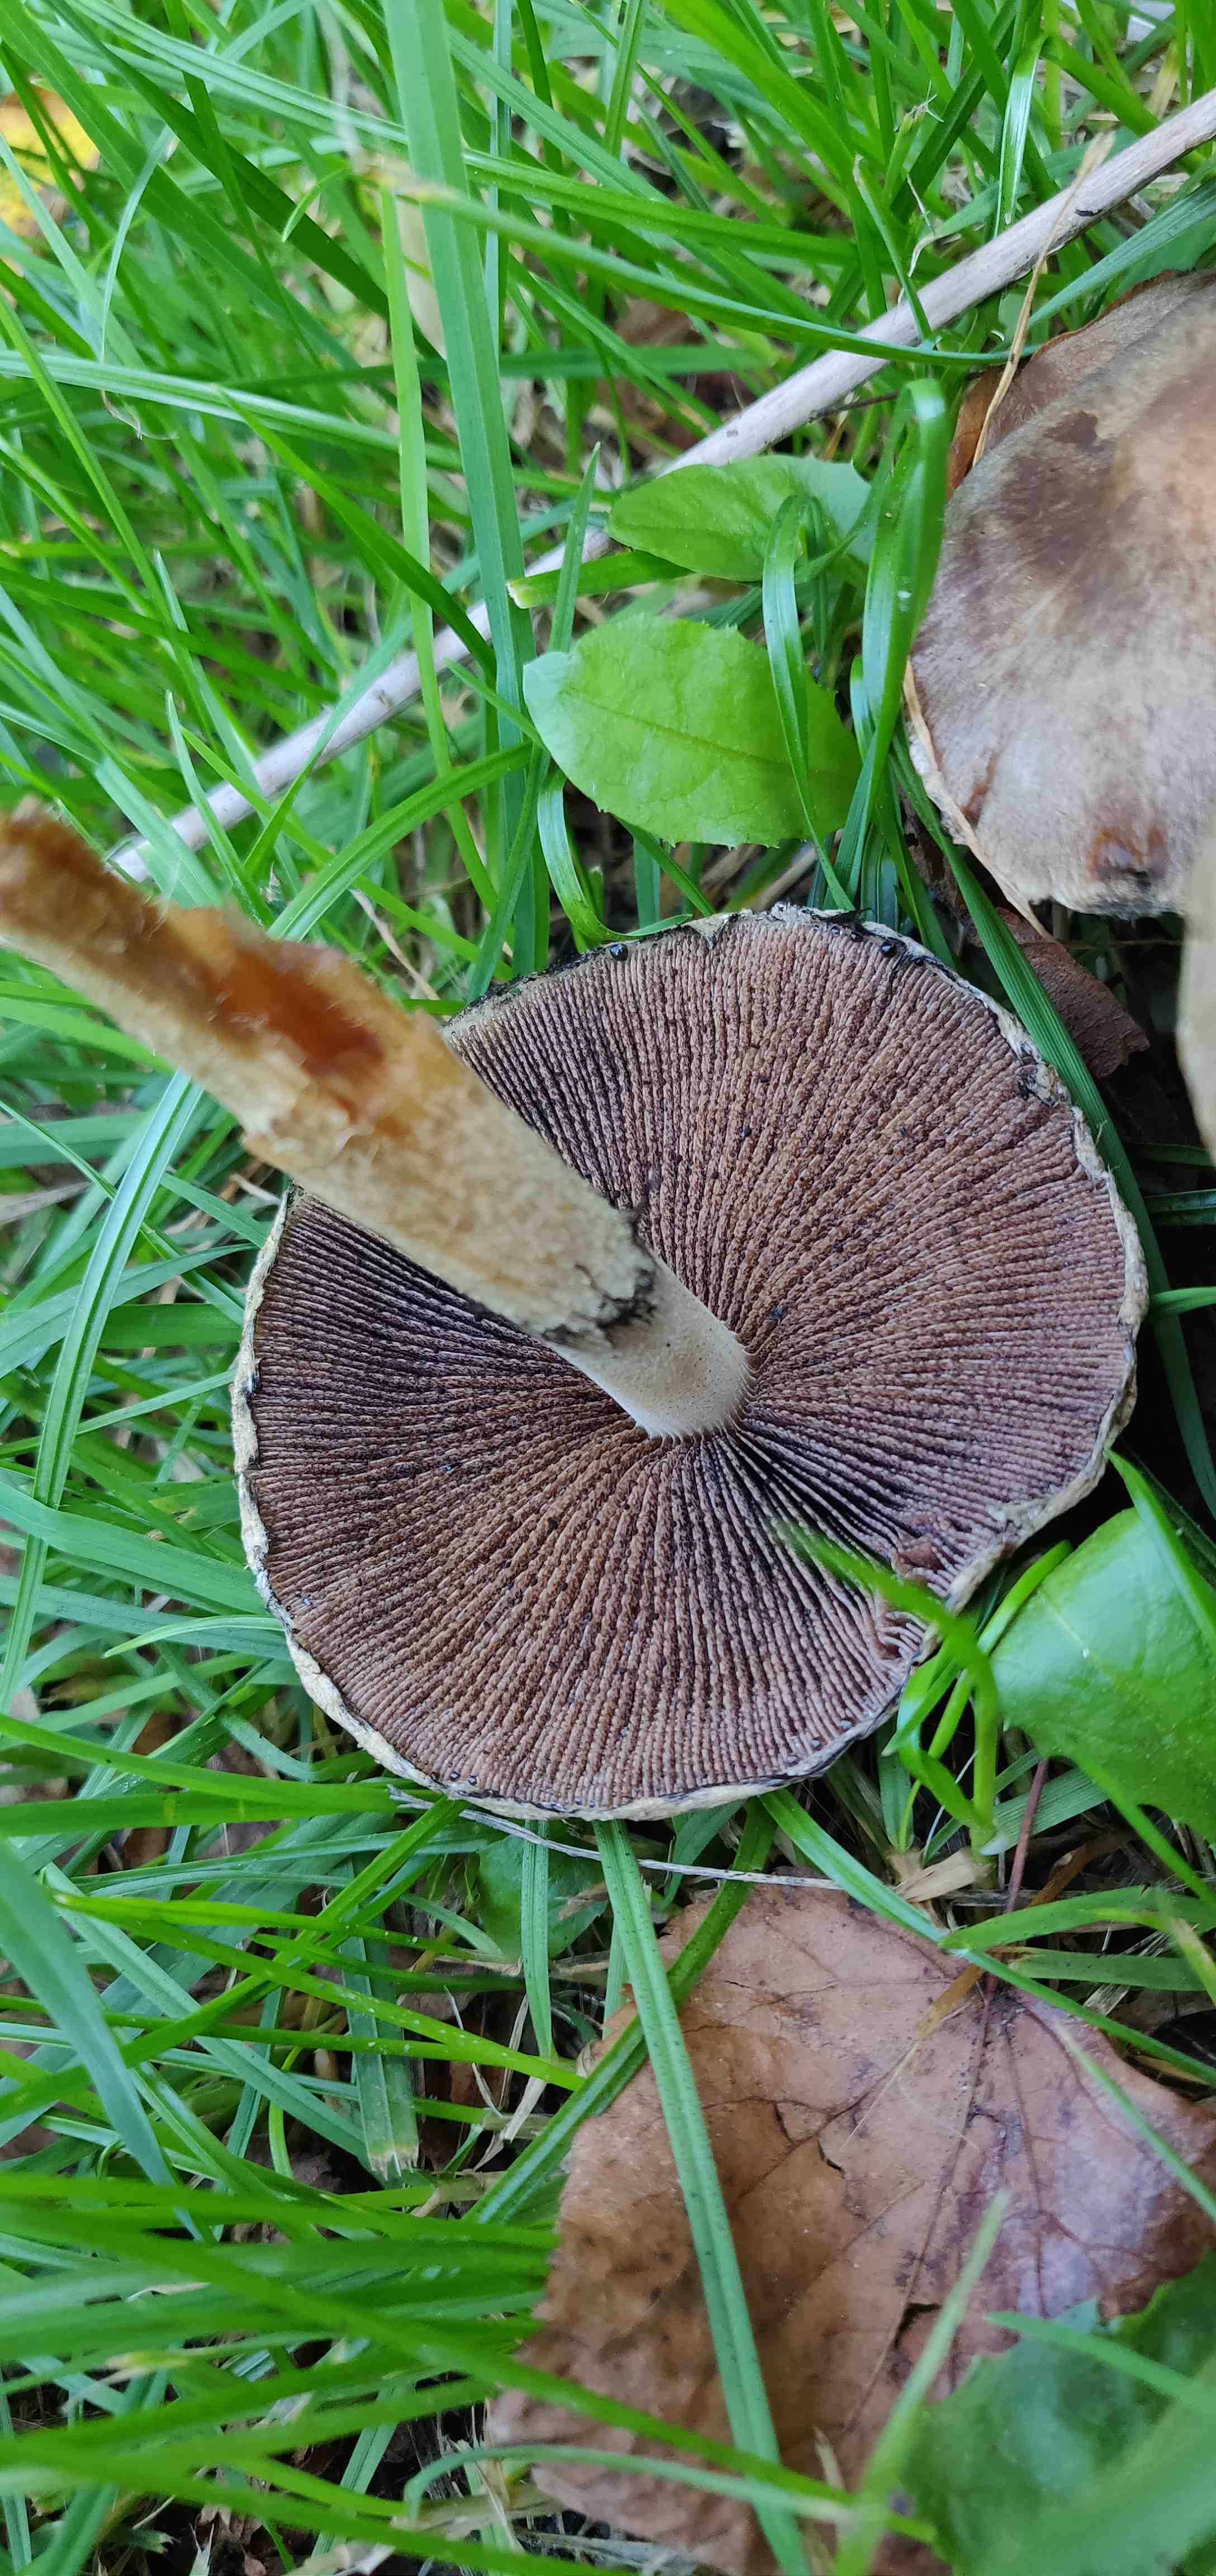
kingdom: Fungi
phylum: Basidiomycota
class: Agaricomycetes
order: Agaricales
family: Psathyrellaceae
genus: Lacrymaria
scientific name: Lacrymaria lacrymabunda
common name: grædende mørkhat
